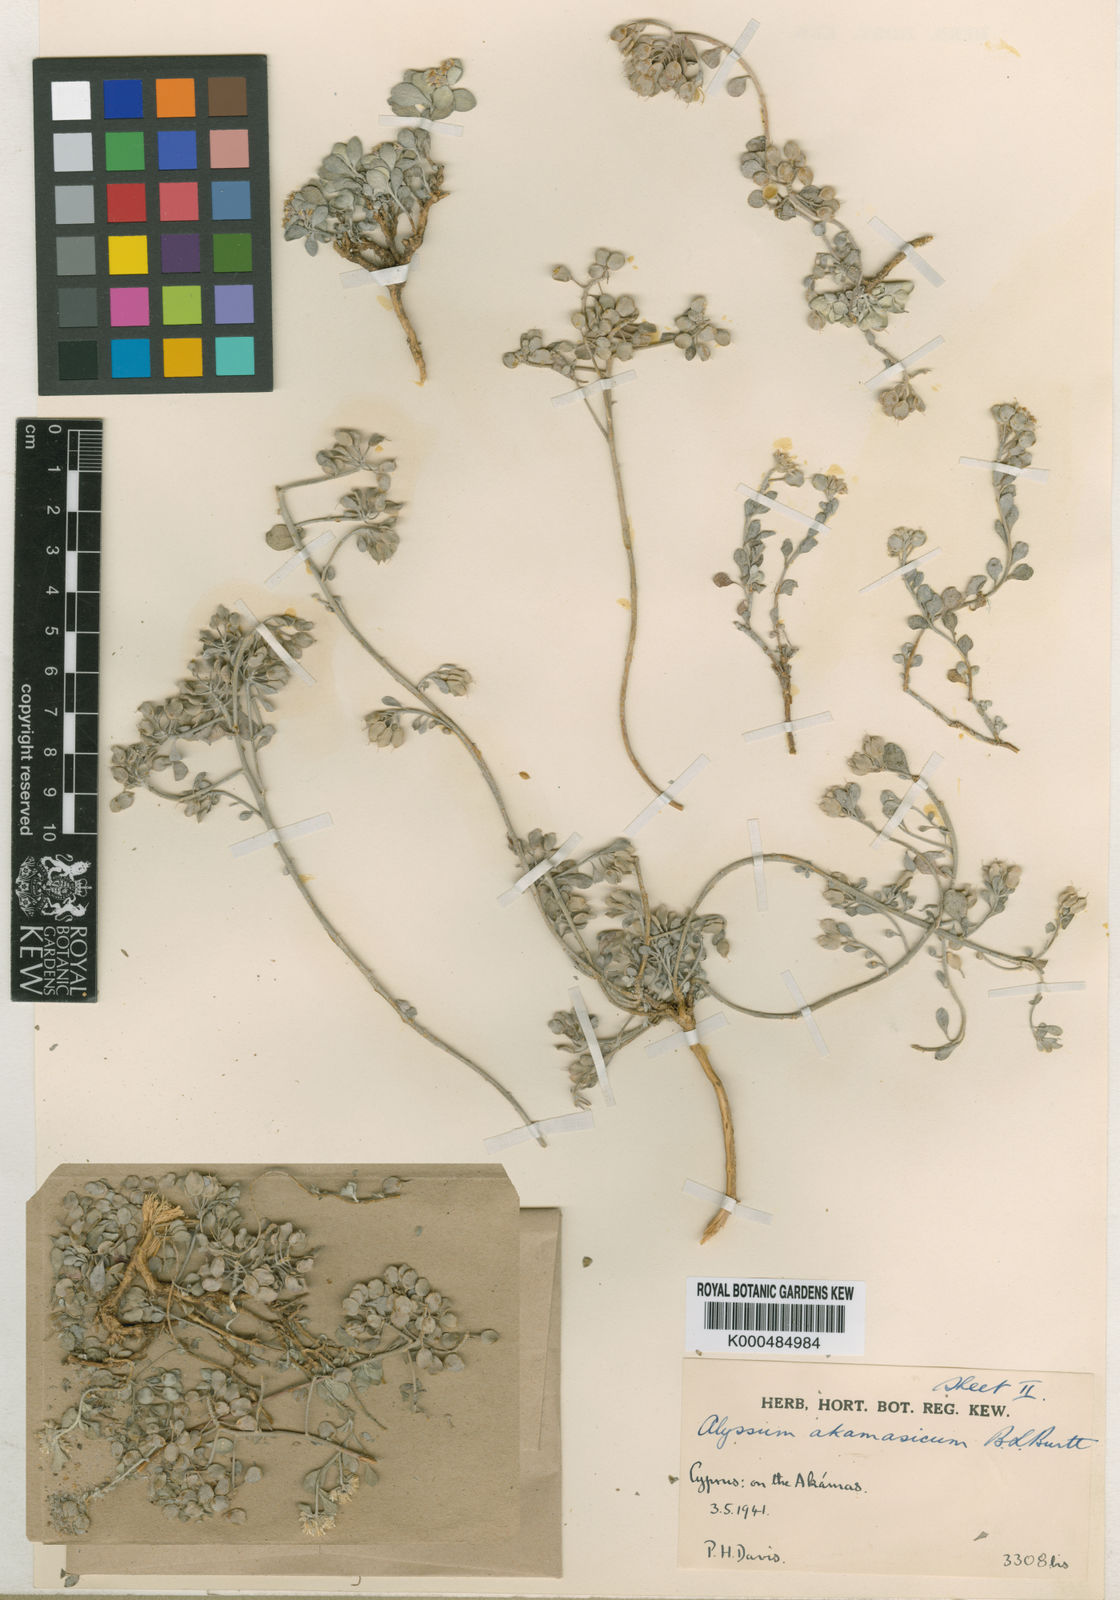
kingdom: Plantae
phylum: Tracheophyta
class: Magnoliopsida
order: Brassicales
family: Brassicaceae
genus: Odontarrhena
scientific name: Odontarrhena akamasica
